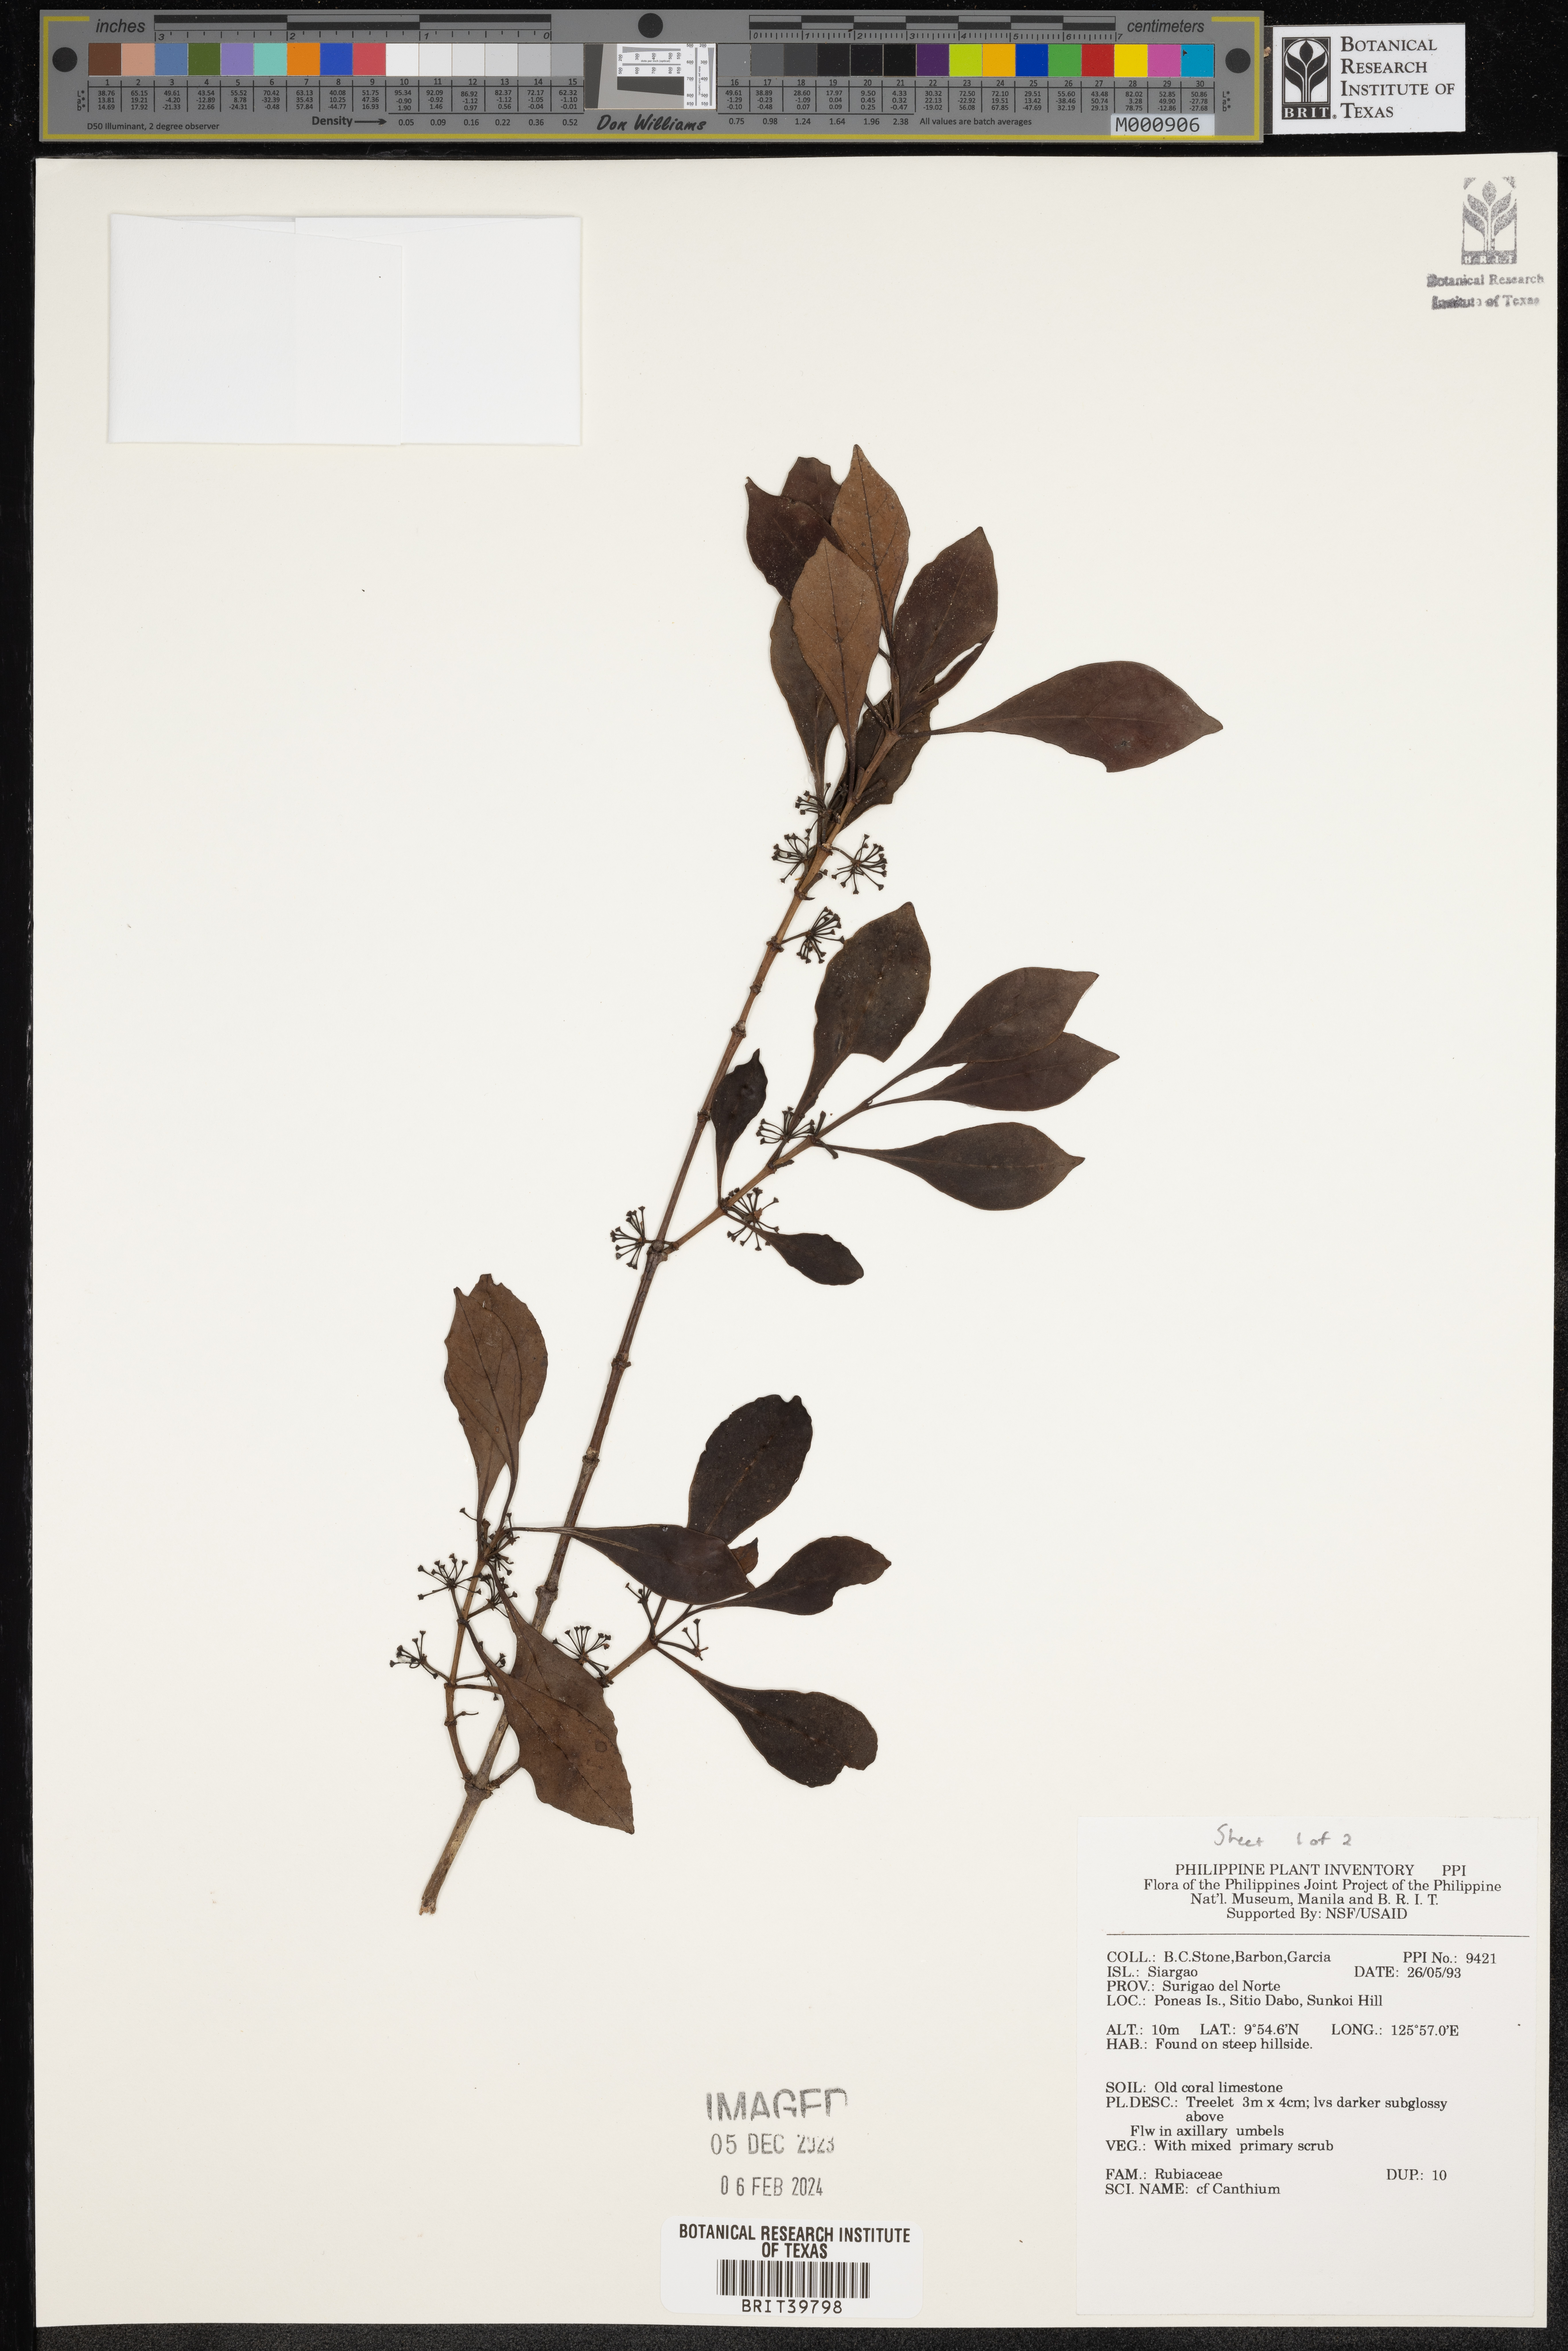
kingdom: Plantae
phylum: Tracheophyta
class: Magnoliopsida
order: Gentianales
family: Rubiaceae
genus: Canthium
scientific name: Canthium
